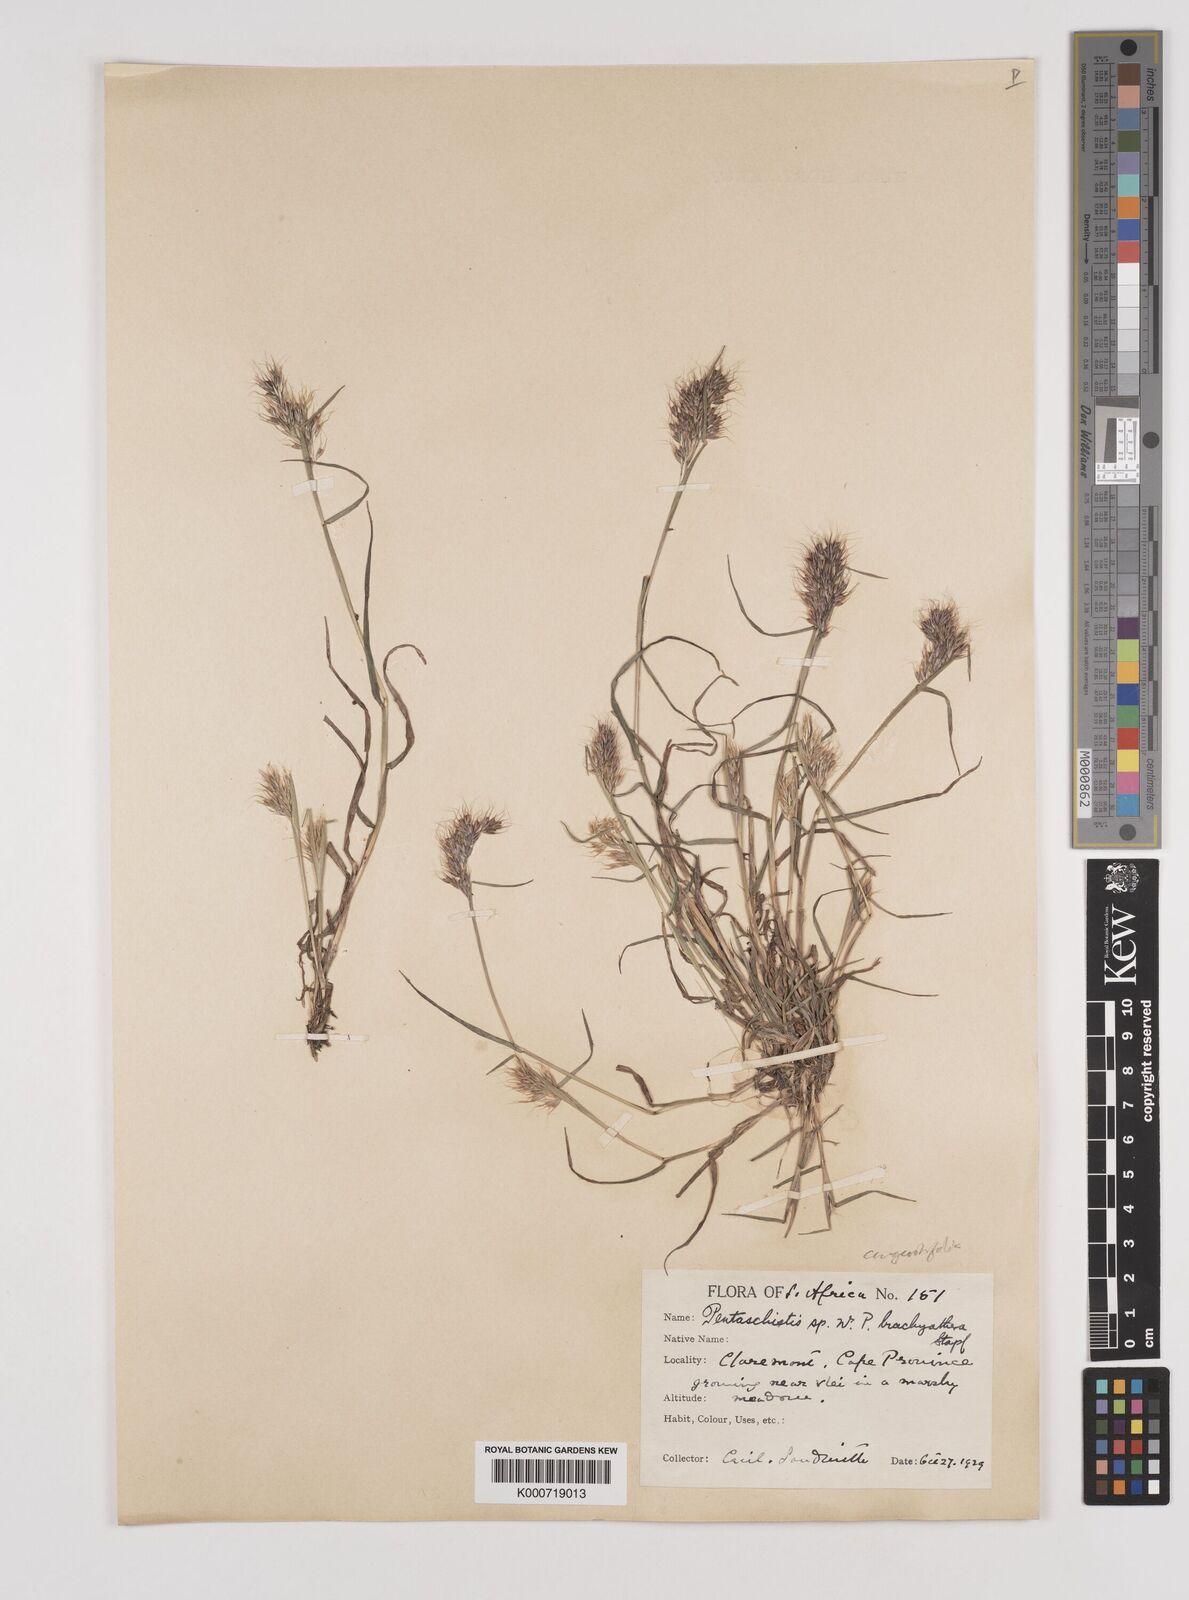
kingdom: Plantae
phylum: Tracheophyta
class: Liliopsida
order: Poales
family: Poaceae
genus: Pentameris
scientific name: Pentameris pallida
